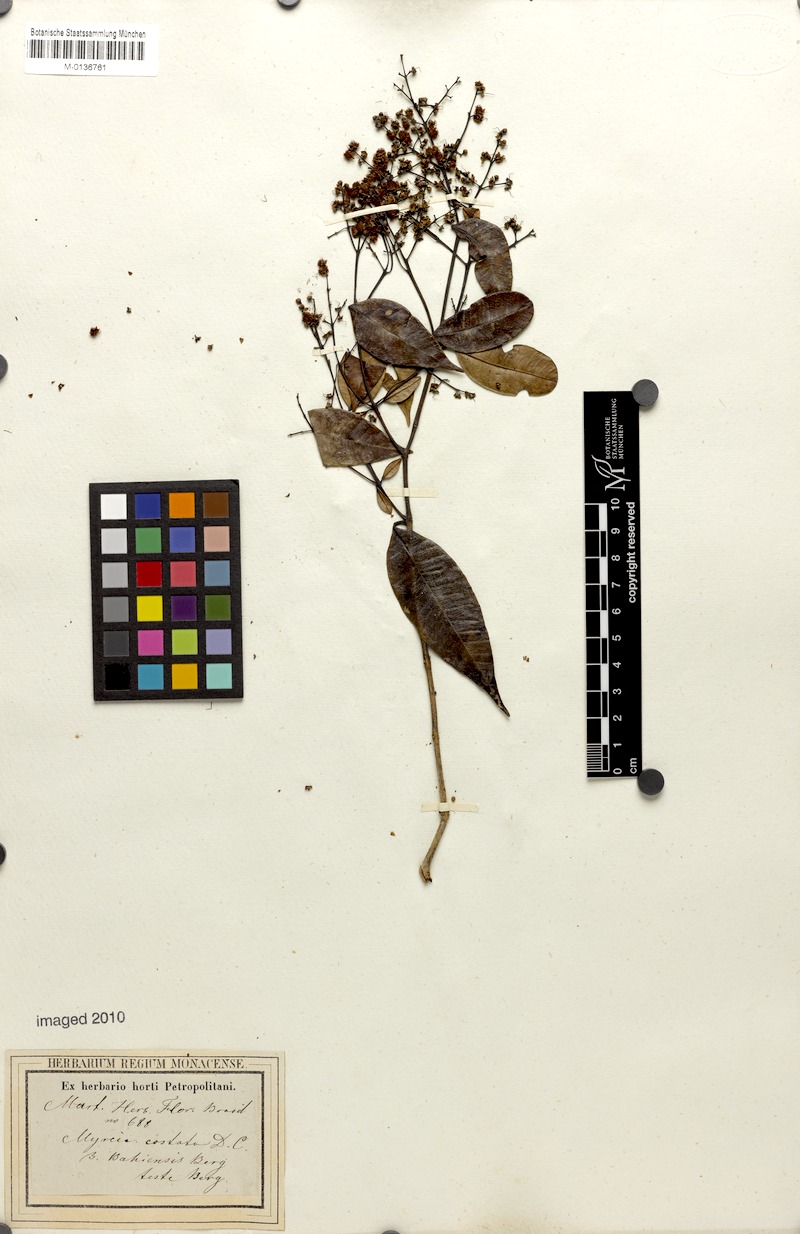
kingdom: Plantae
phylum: Tracheophyta
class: Magnoliopsida
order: Myrtales
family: Myrtaceae
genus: Myrcia
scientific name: Myrcia splendens
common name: Surinam cherry
